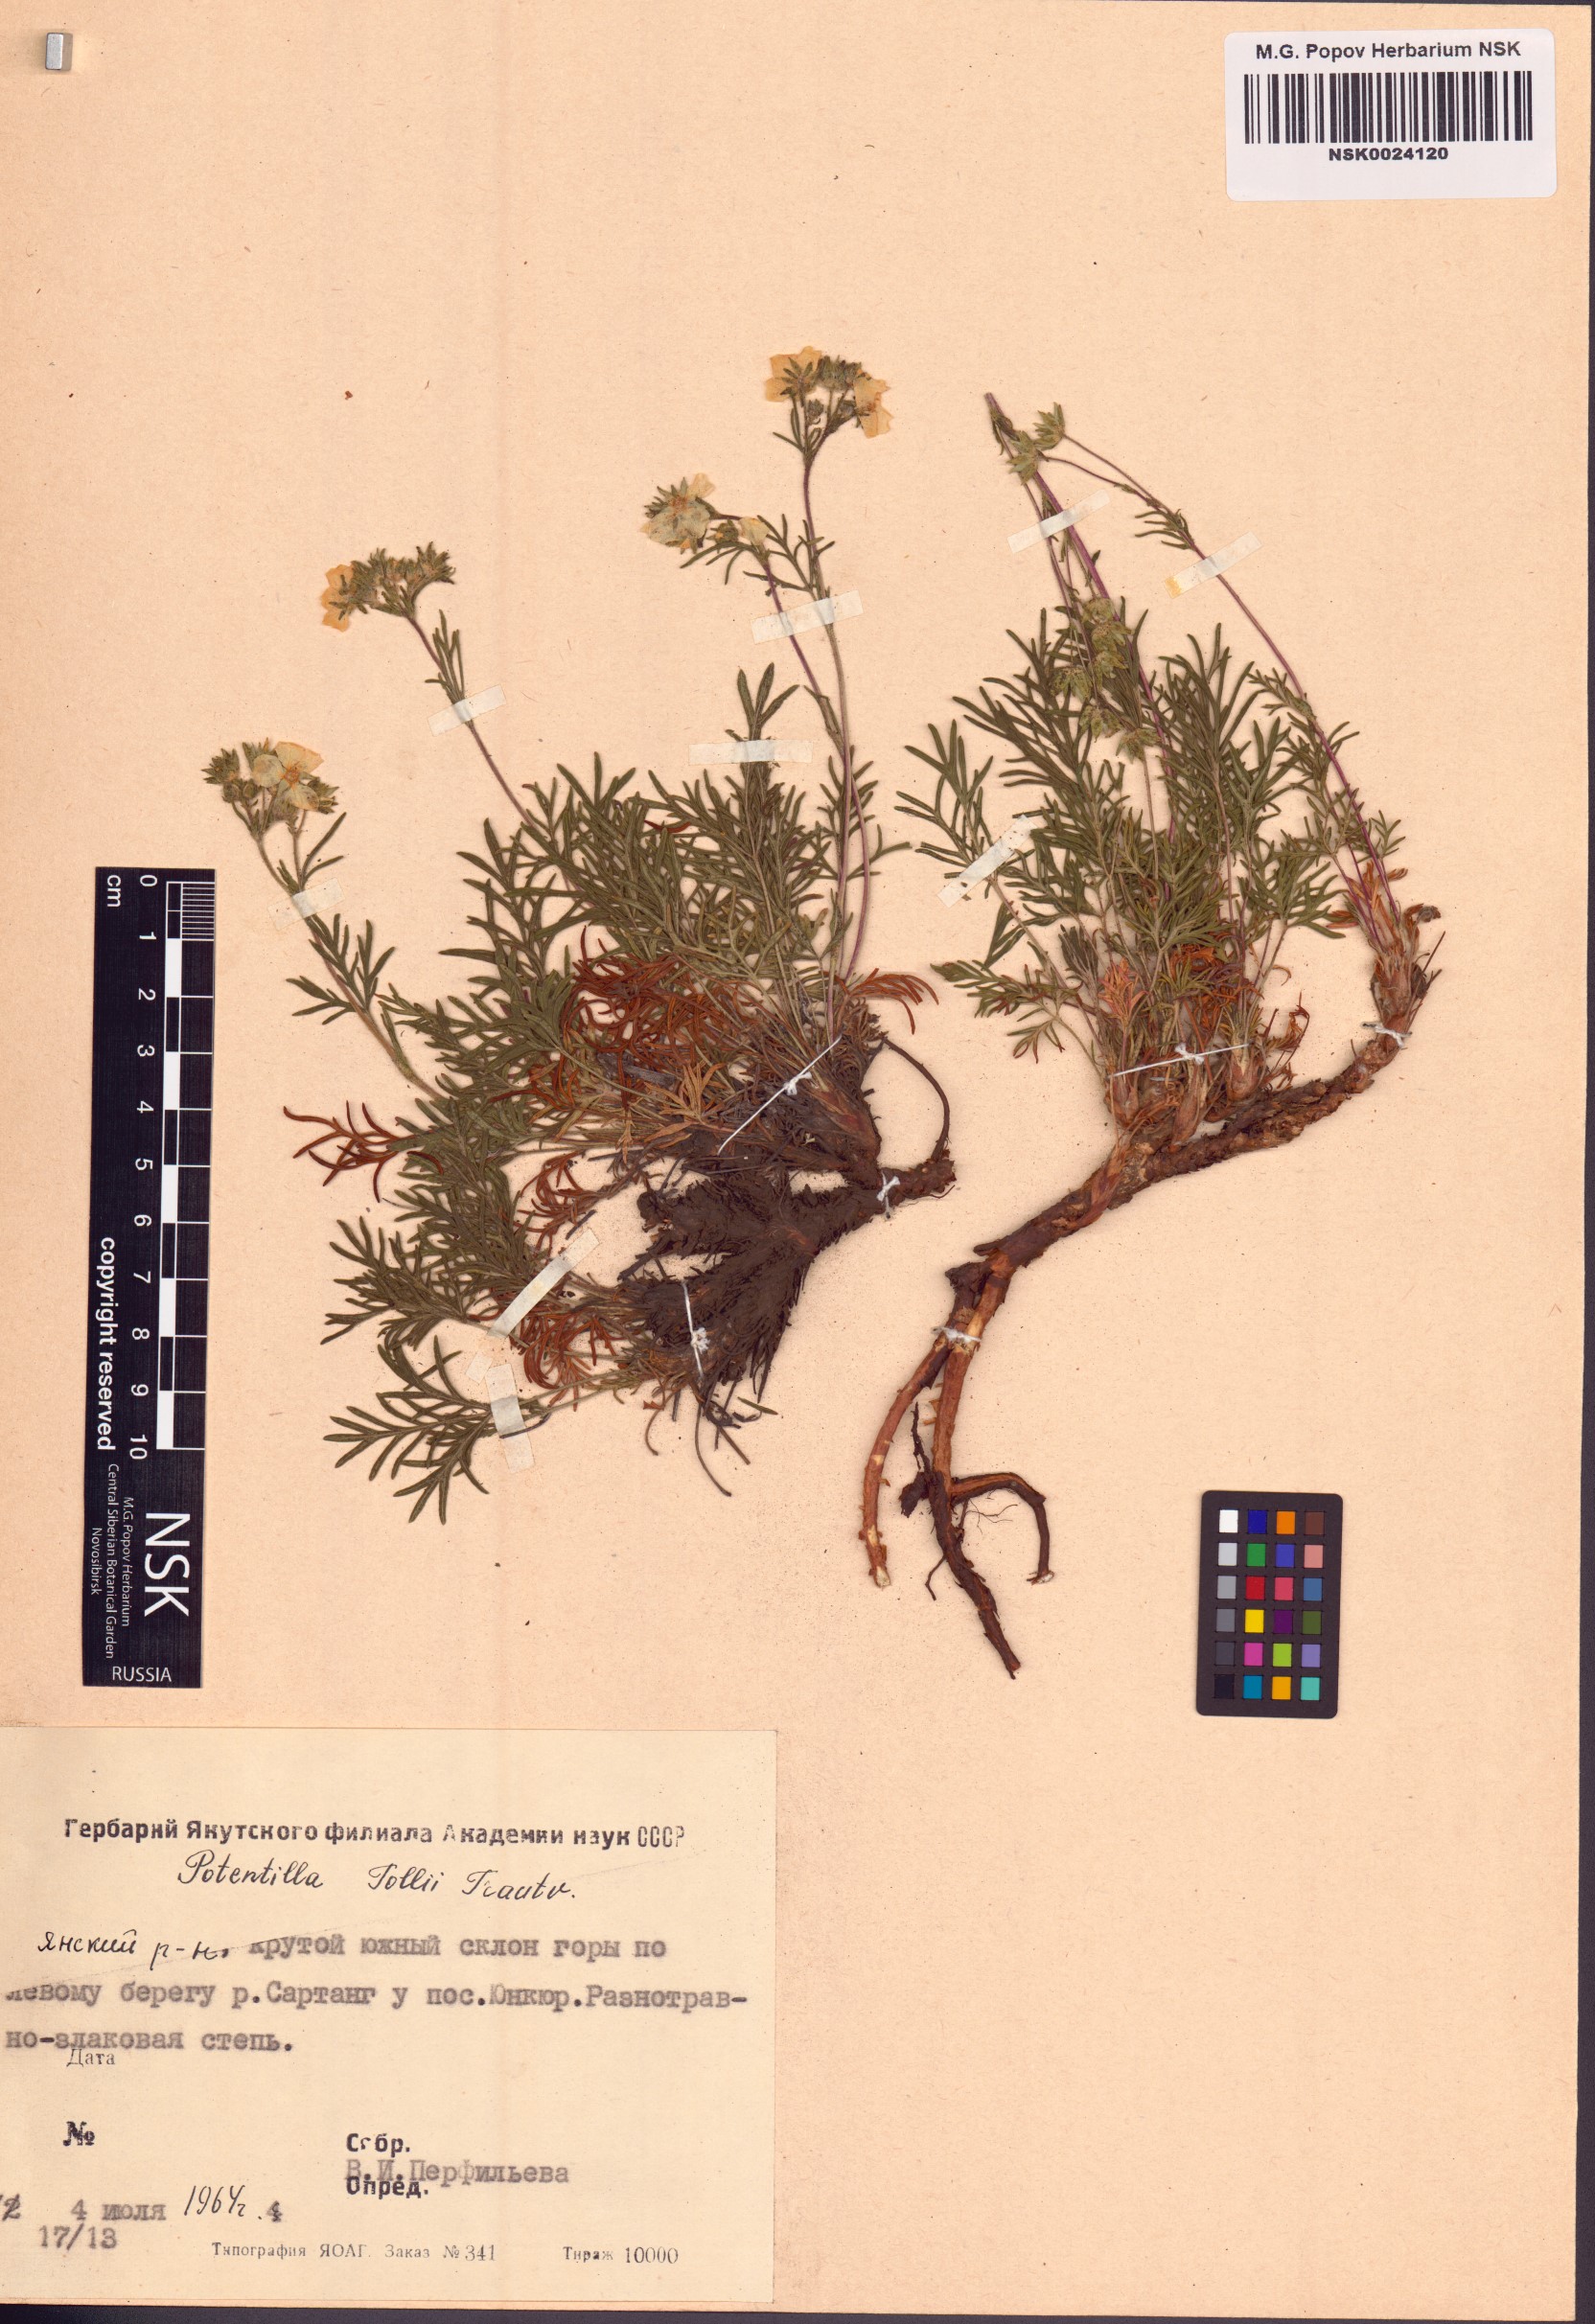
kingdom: Plantae
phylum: Tracheophyta
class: Magnoliopsida
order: Rosales
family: Rosaceae
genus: Potentilla
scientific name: Potentilla tollii
